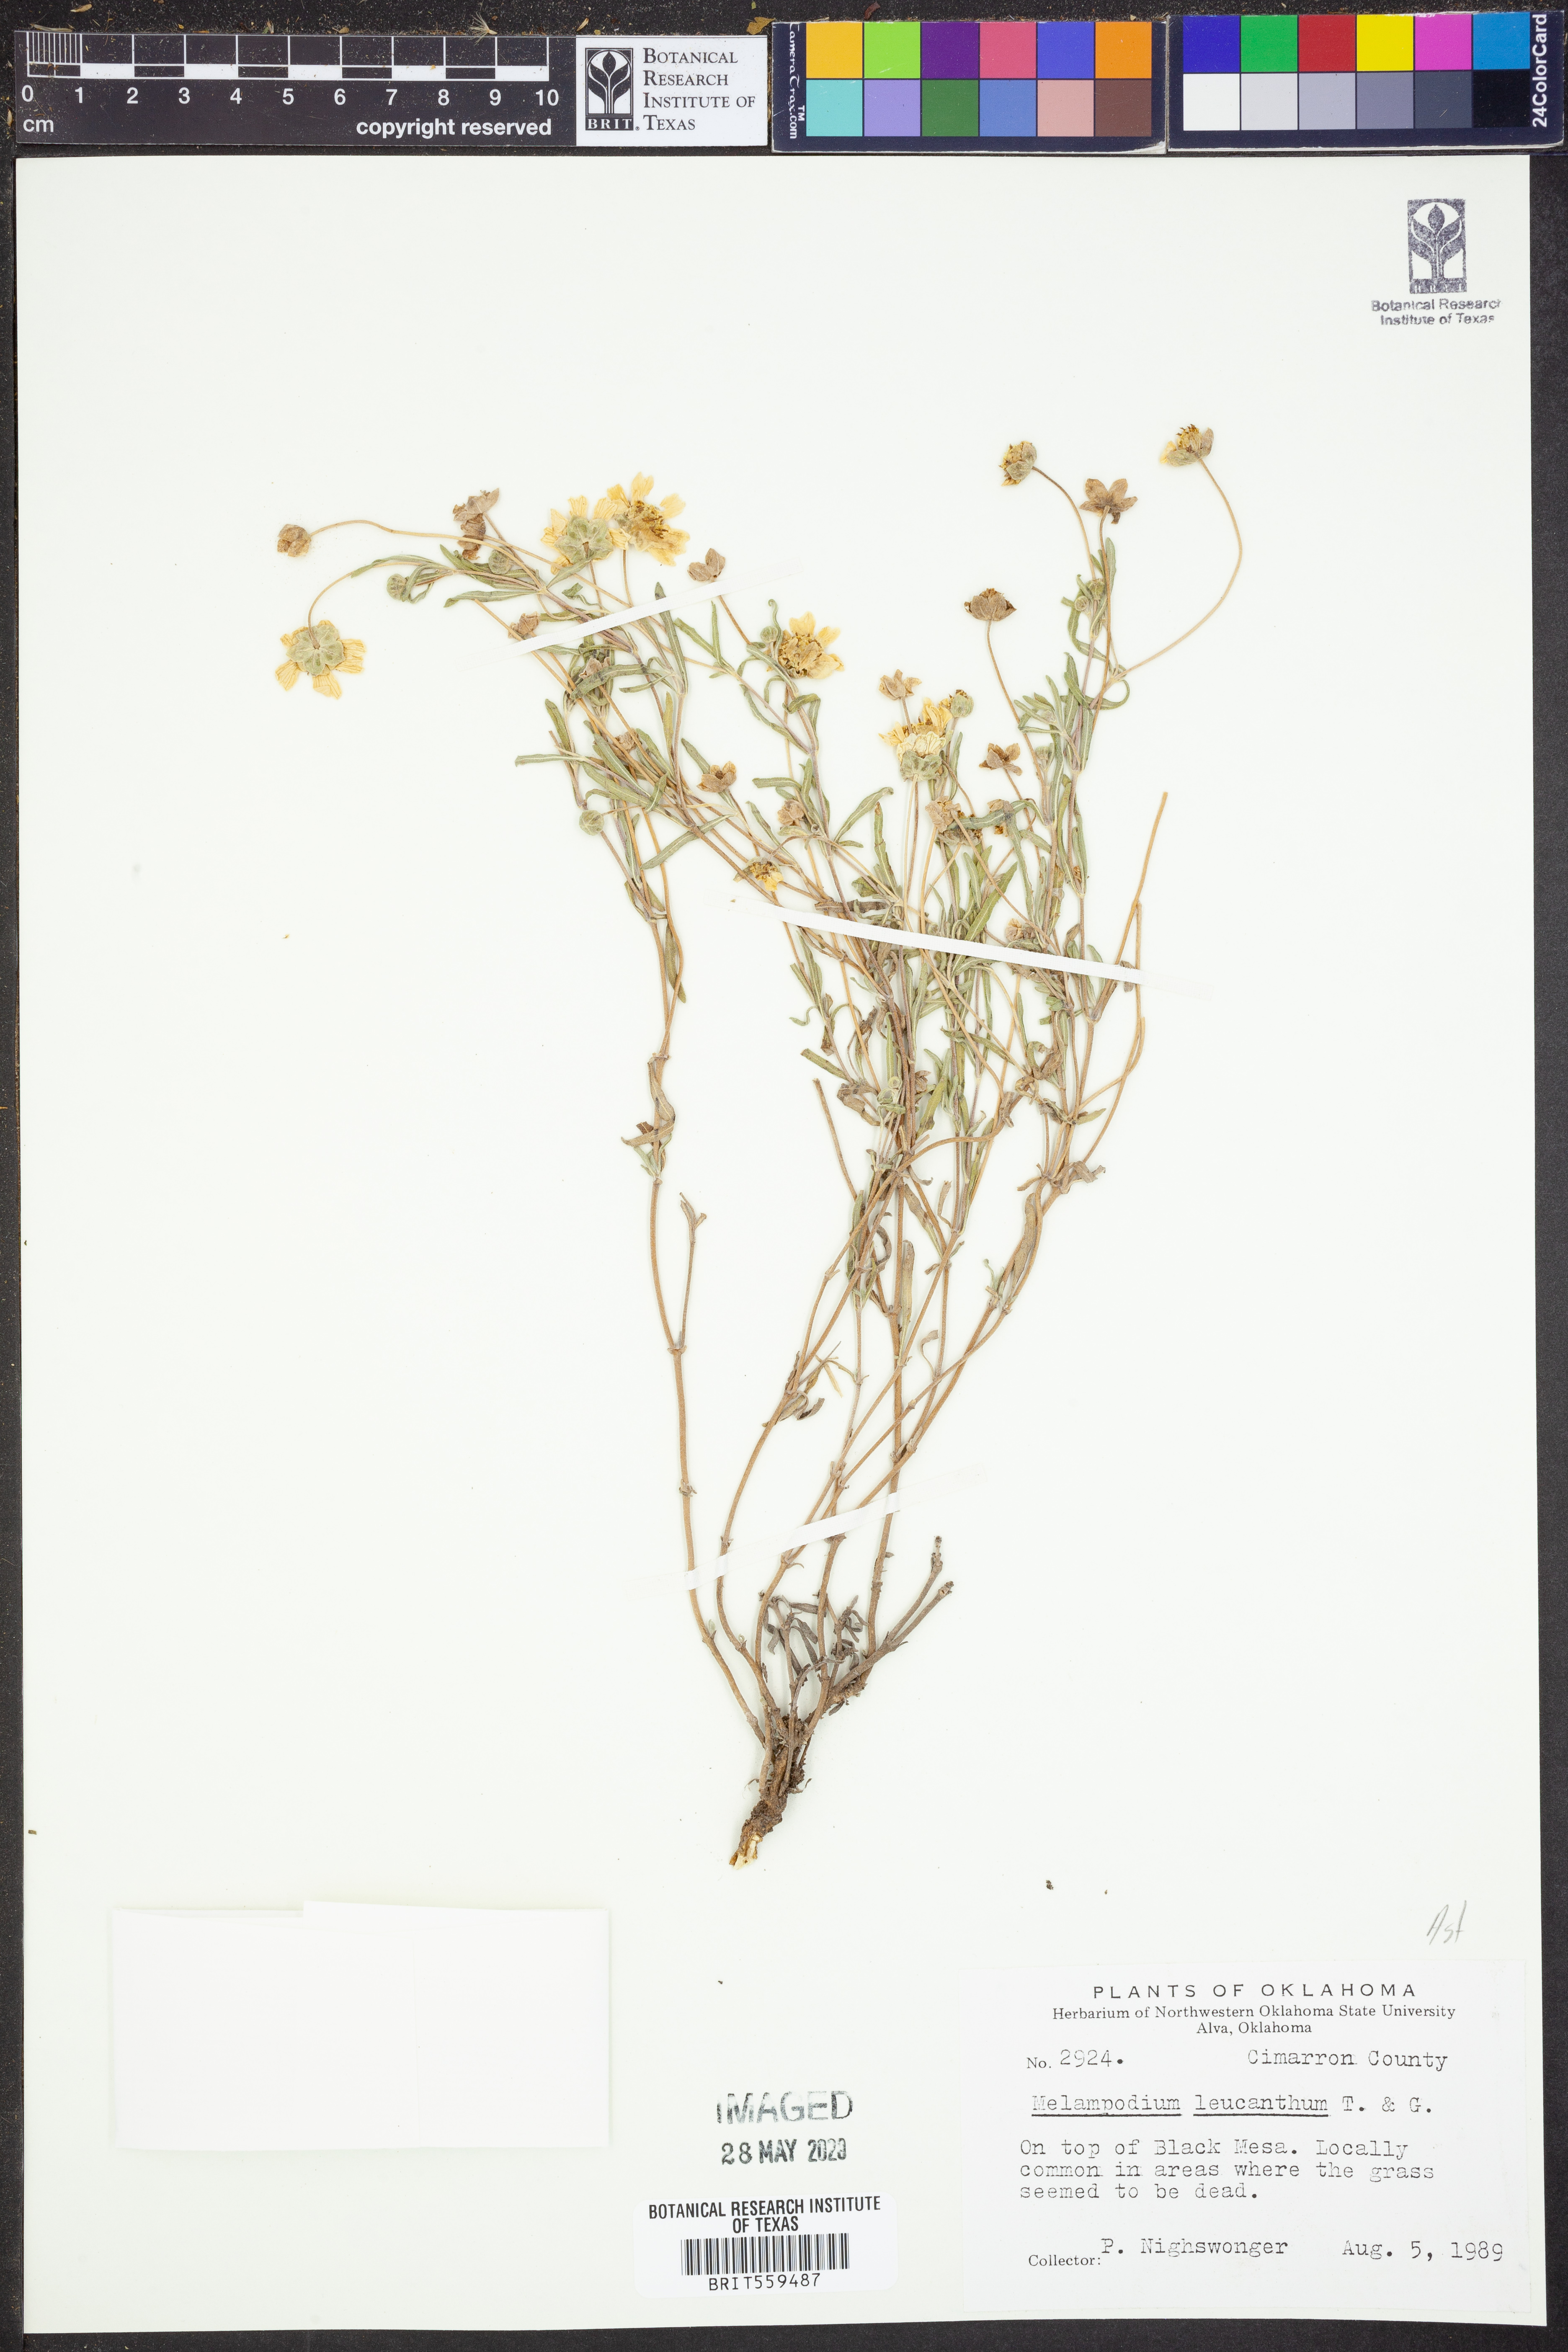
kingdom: Plantae
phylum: Tracheophyta
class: Magnoliopsida
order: Asterales
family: Asteraceae
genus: Melampodium
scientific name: Melampodium leucanthum
